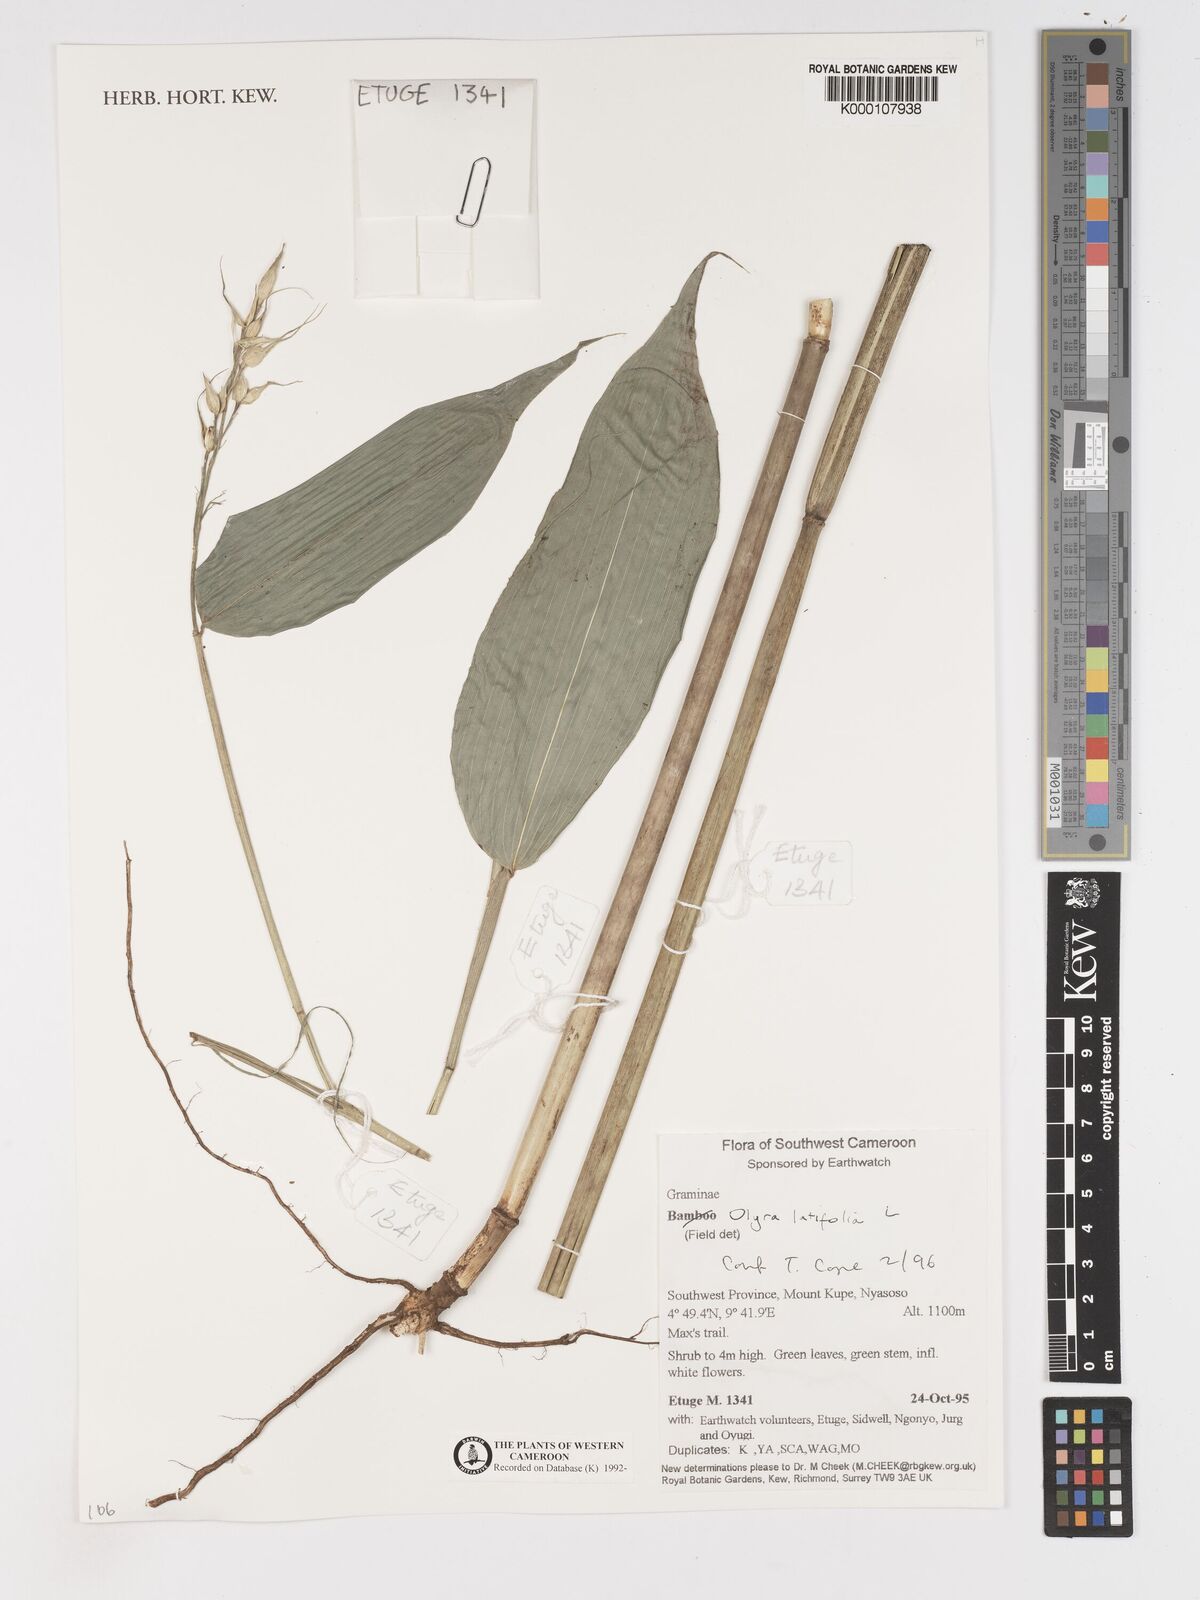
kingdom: Plantae
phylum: Tracheophyta
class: Liliopsida
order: Poales
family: Poaceae
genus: Olyra
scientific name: Olyra latifolia
